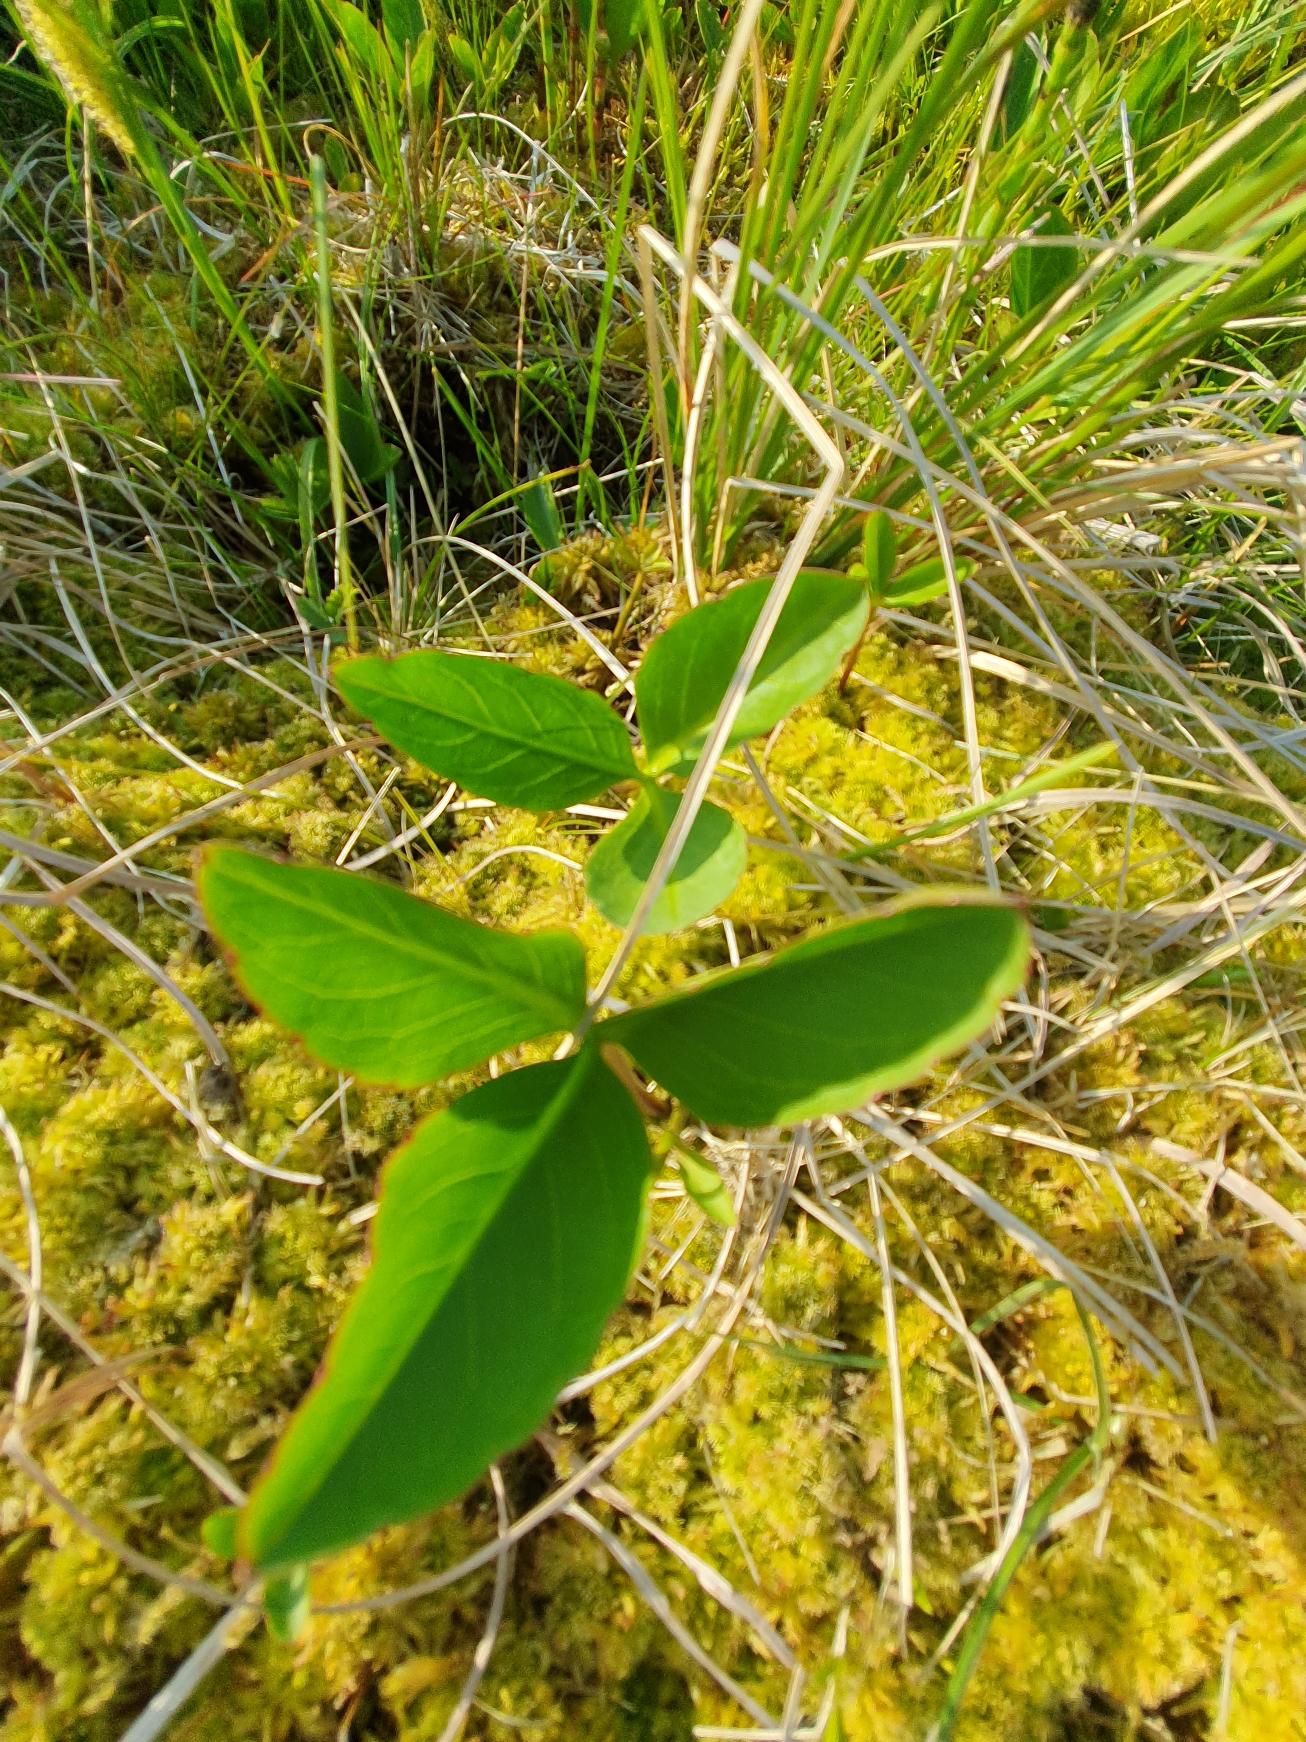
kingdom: Plantae
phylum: Tracheophyta
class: Magnoliopsida
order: Asterales
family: Menyanthaceae
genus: Menyanthes
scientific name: Menyanthes trifoliata
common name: Bukkeblad
